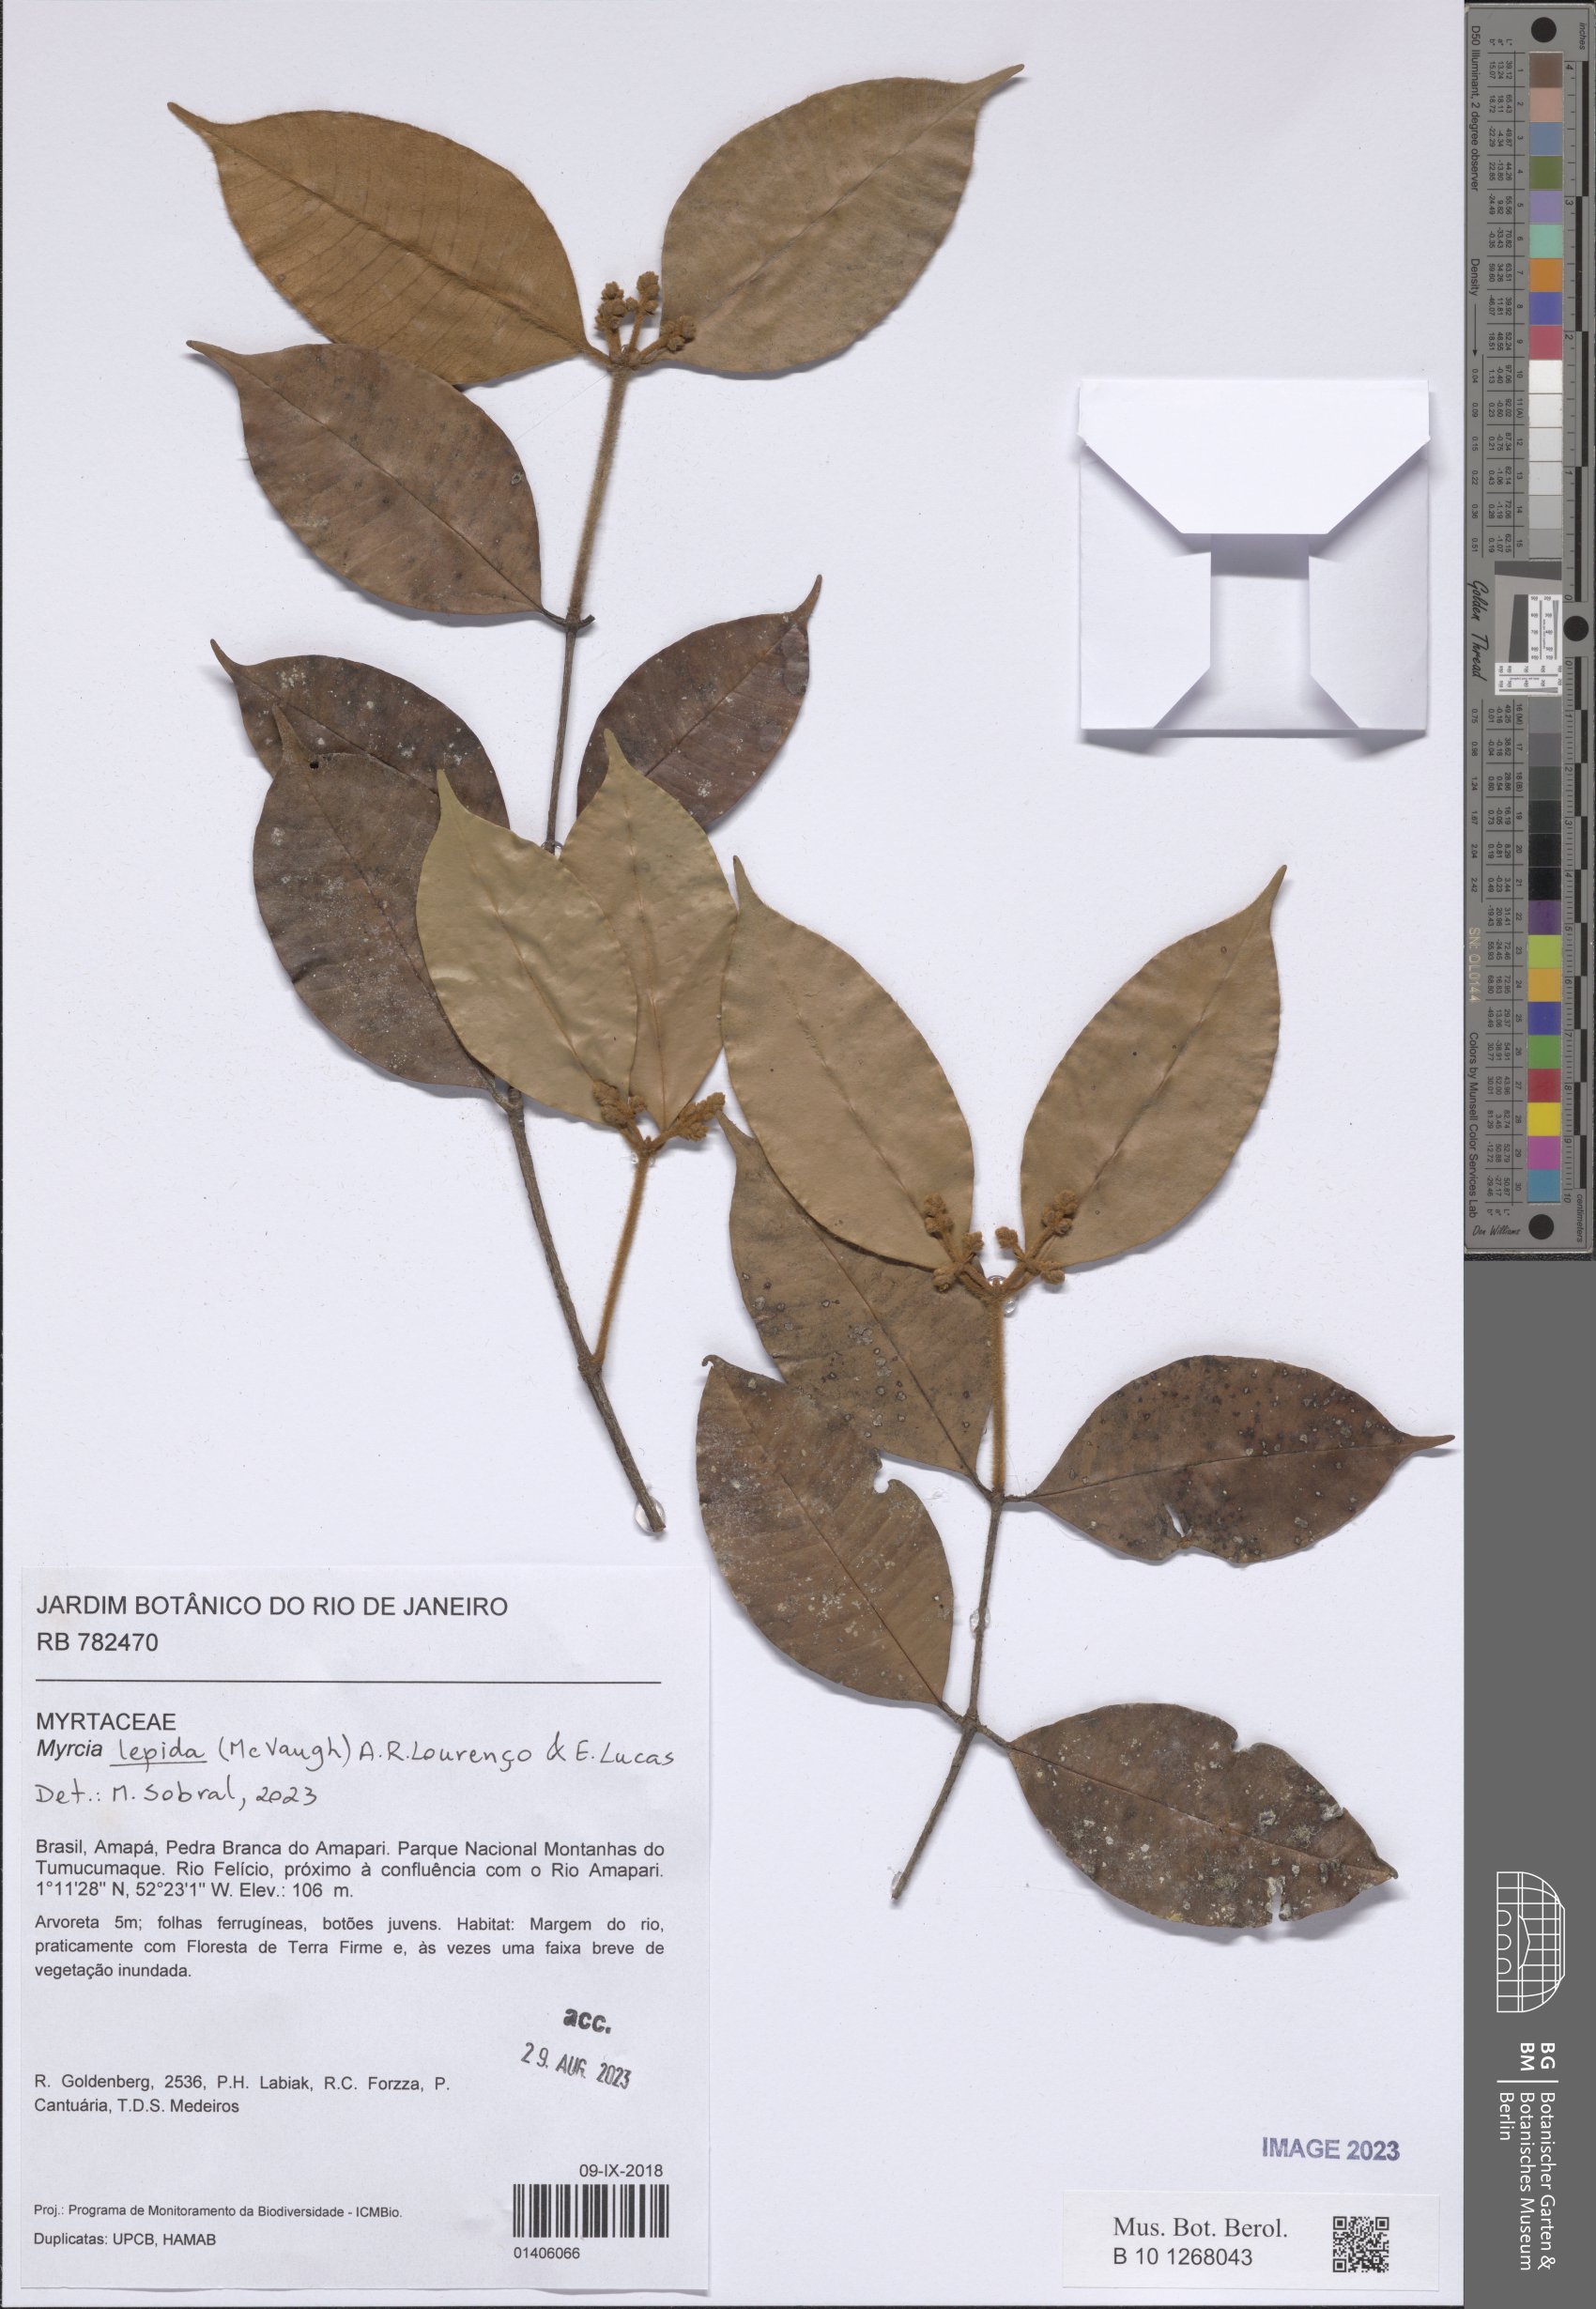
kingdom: Plantae
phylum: Tracheophyta
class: Magnoliopsida
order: Myrtales
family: Myrtaceae
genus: Myrcia
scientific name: Myrcia lepida
